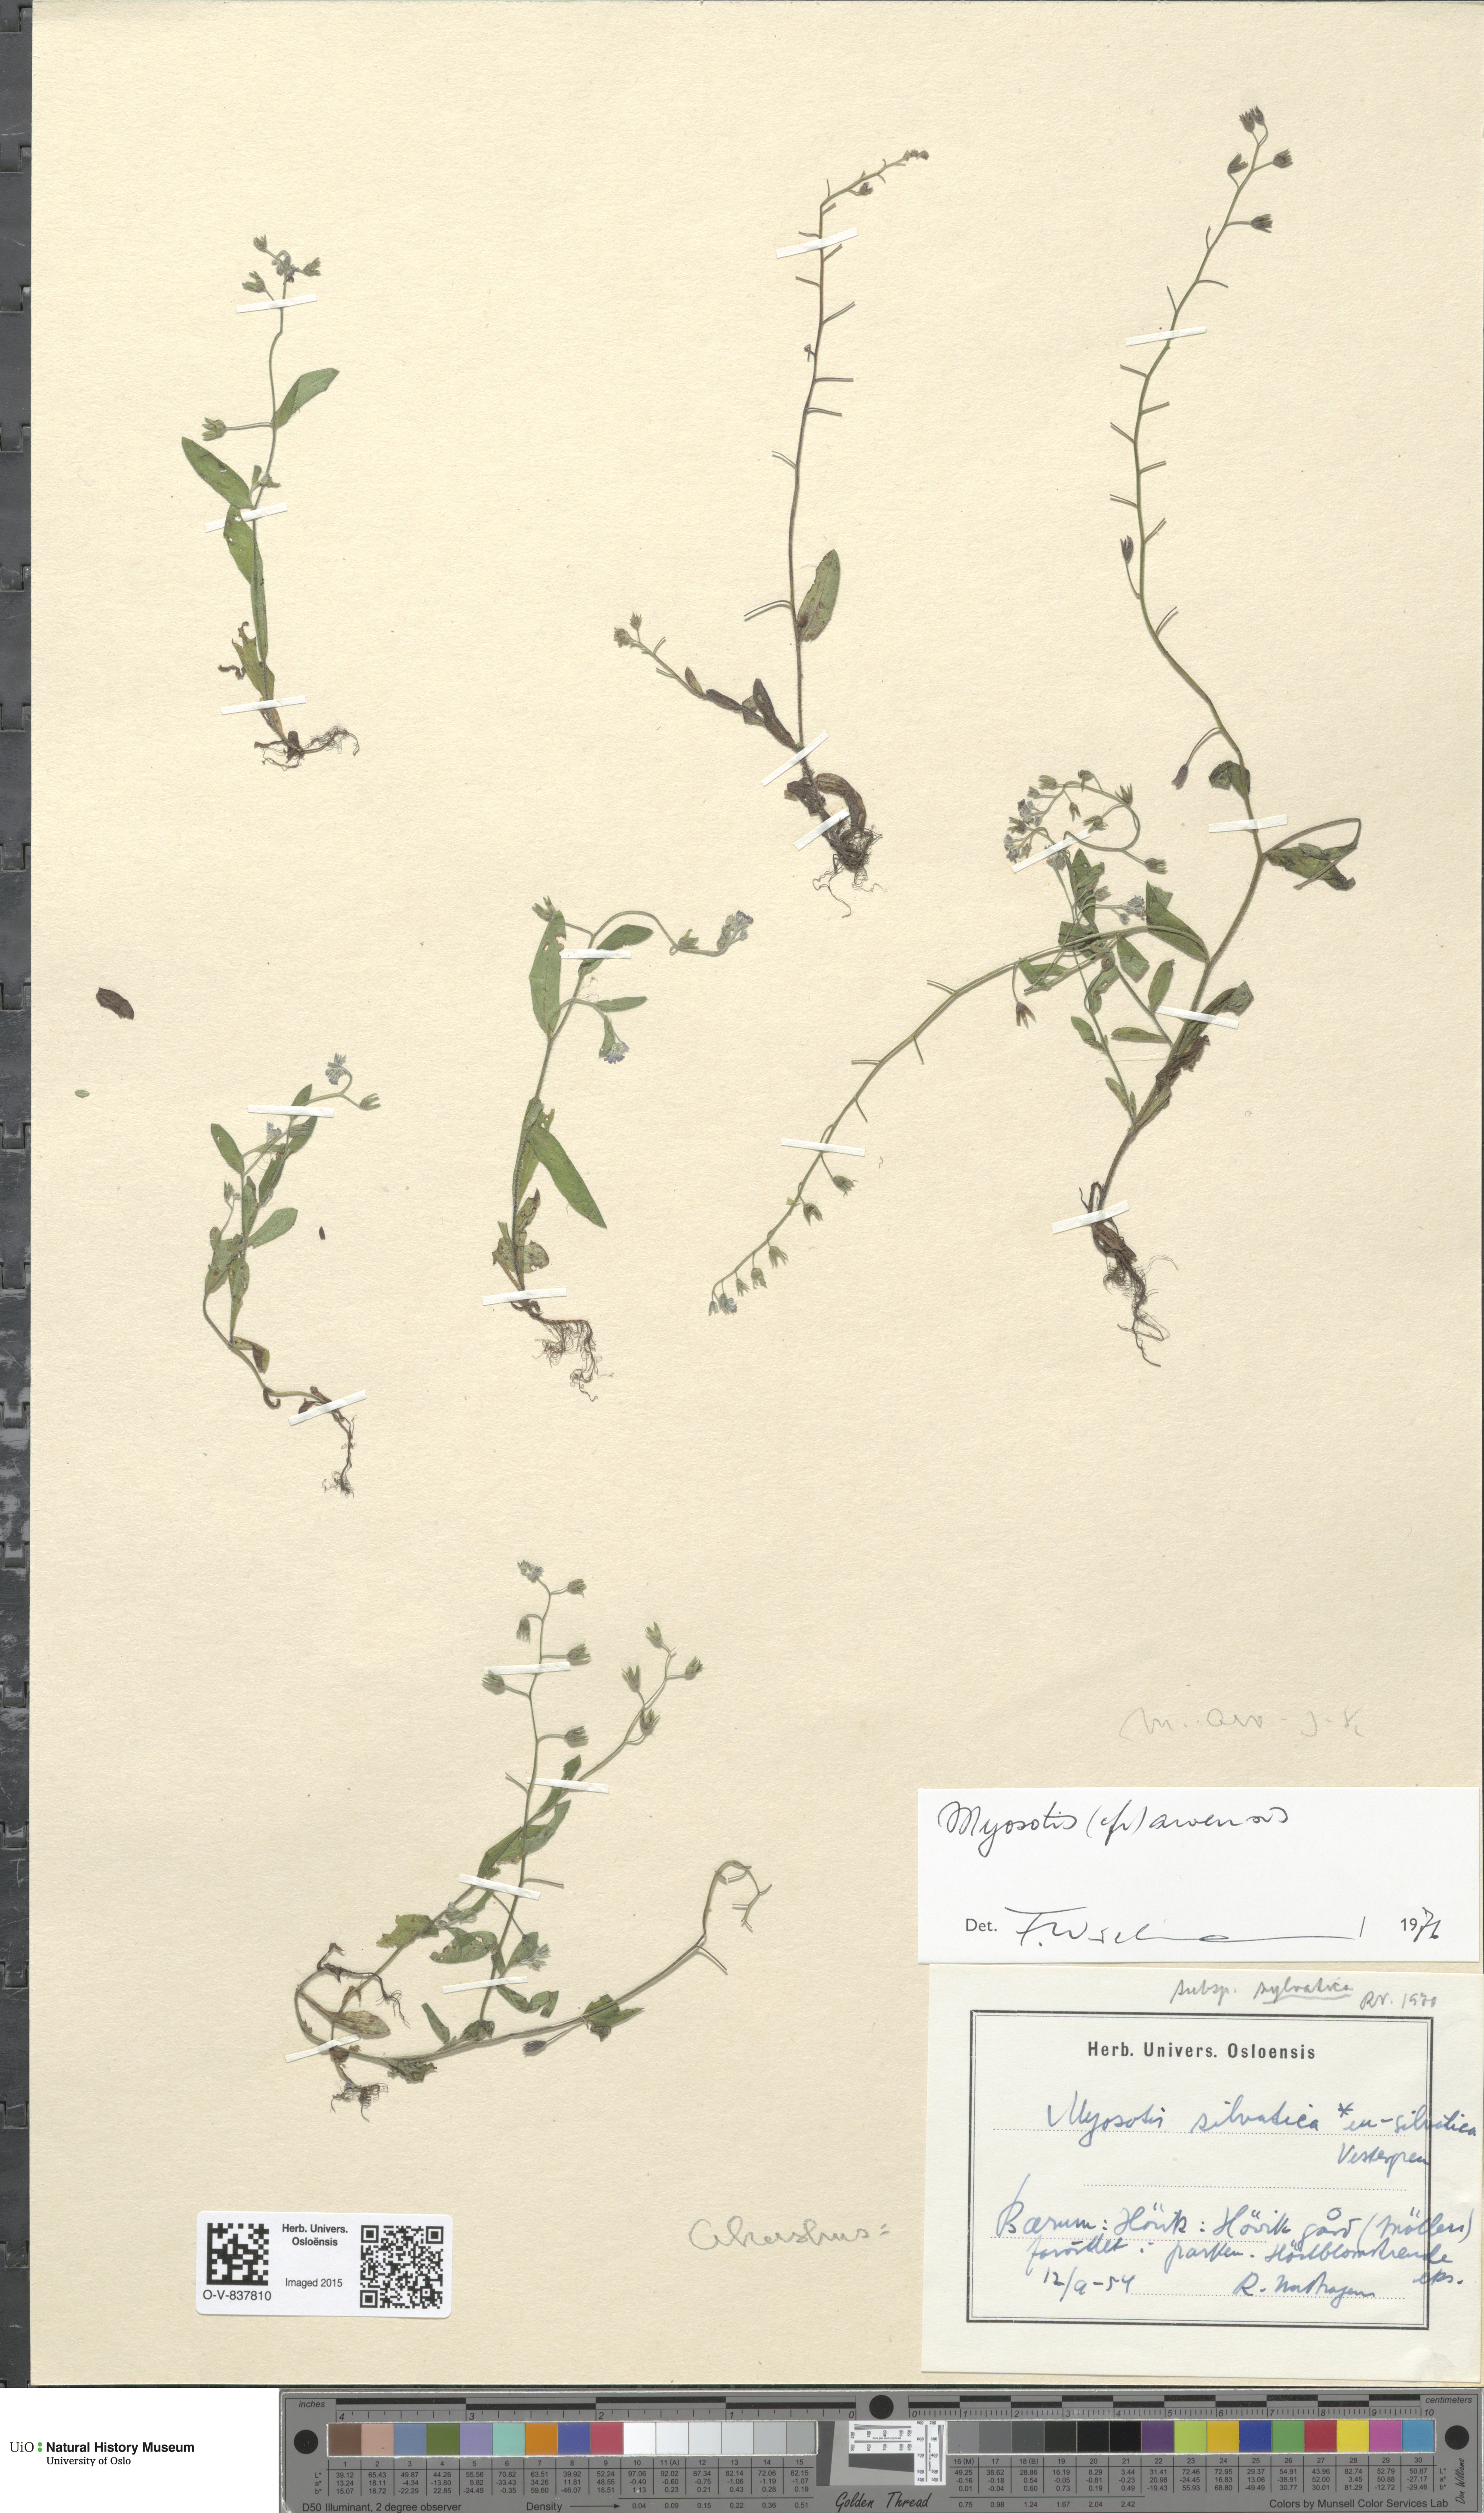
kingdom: Plantae
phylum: Tracheophyta
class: Magnoliopsida
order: Boraginales
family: Boraginaceae
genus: Myosotis
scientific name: Myosotis arvensis
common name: Field forget-me-not
